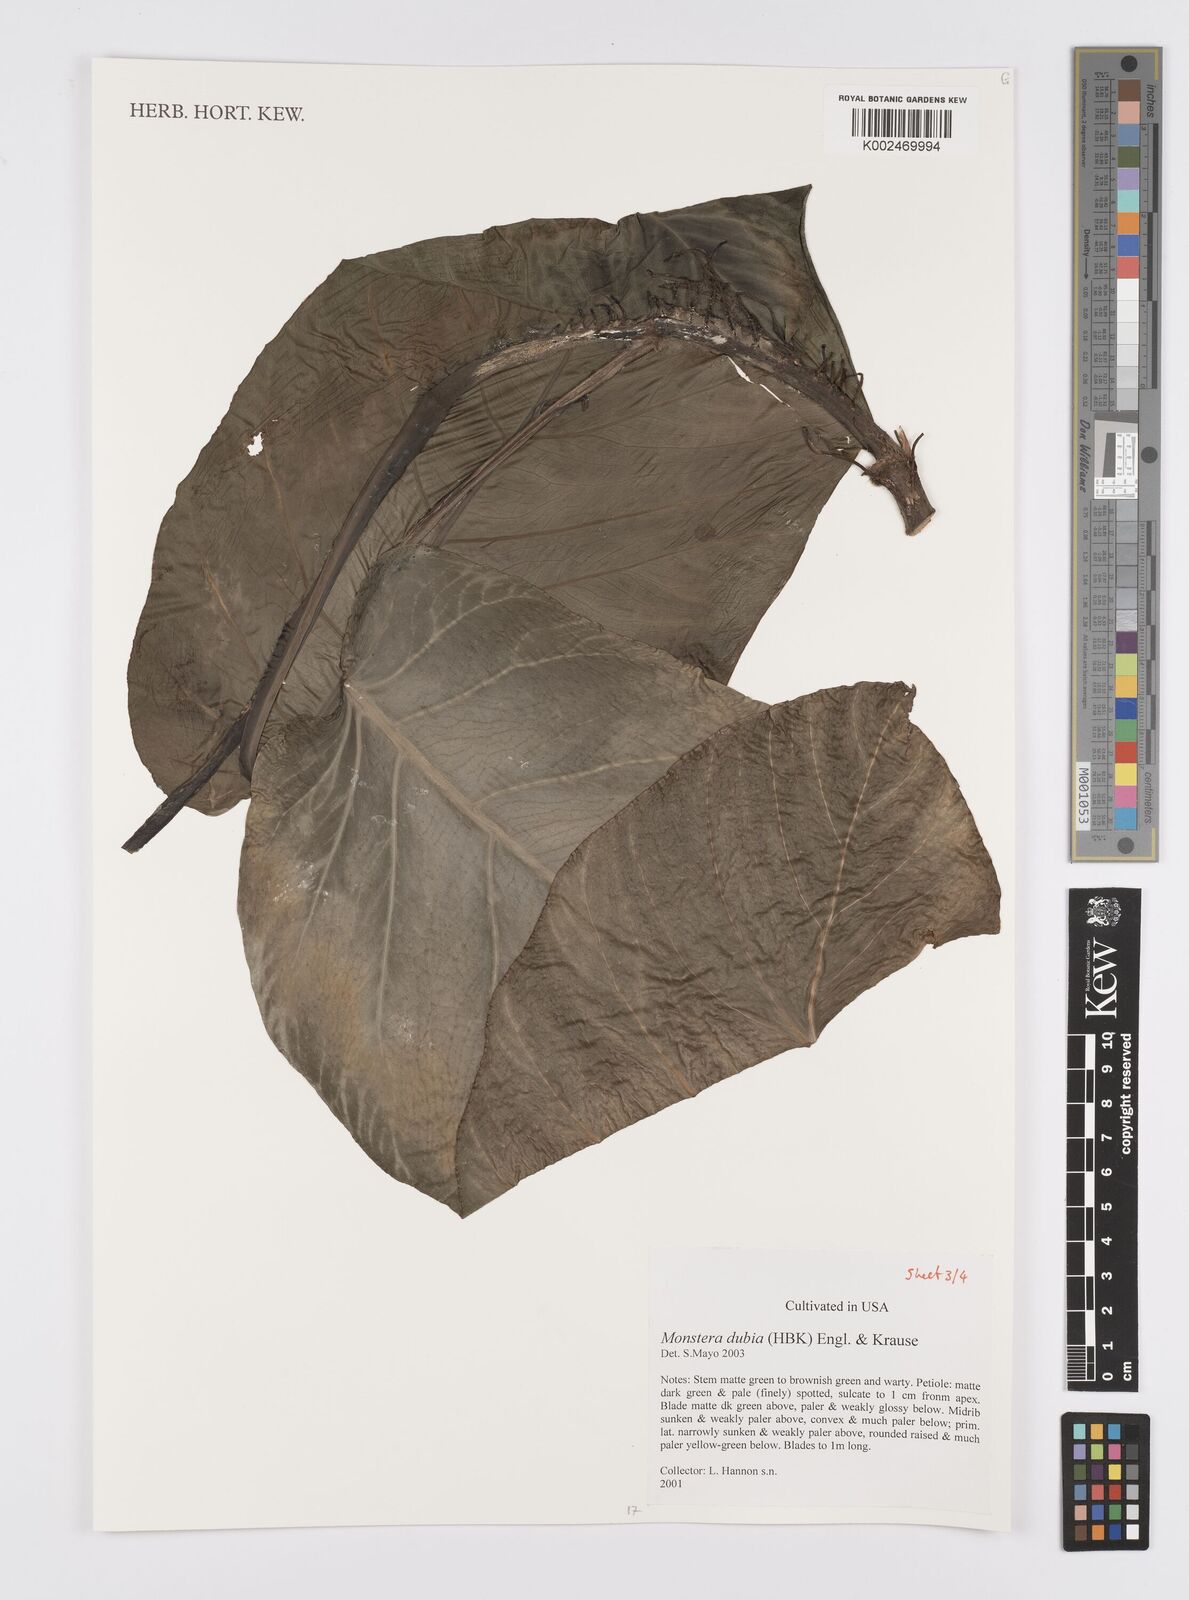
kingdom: Plantae
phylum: Tracheophyta
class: Liliopsida
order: Alismatales
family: Araceae
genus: Monstera
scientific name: Monstera dubia
